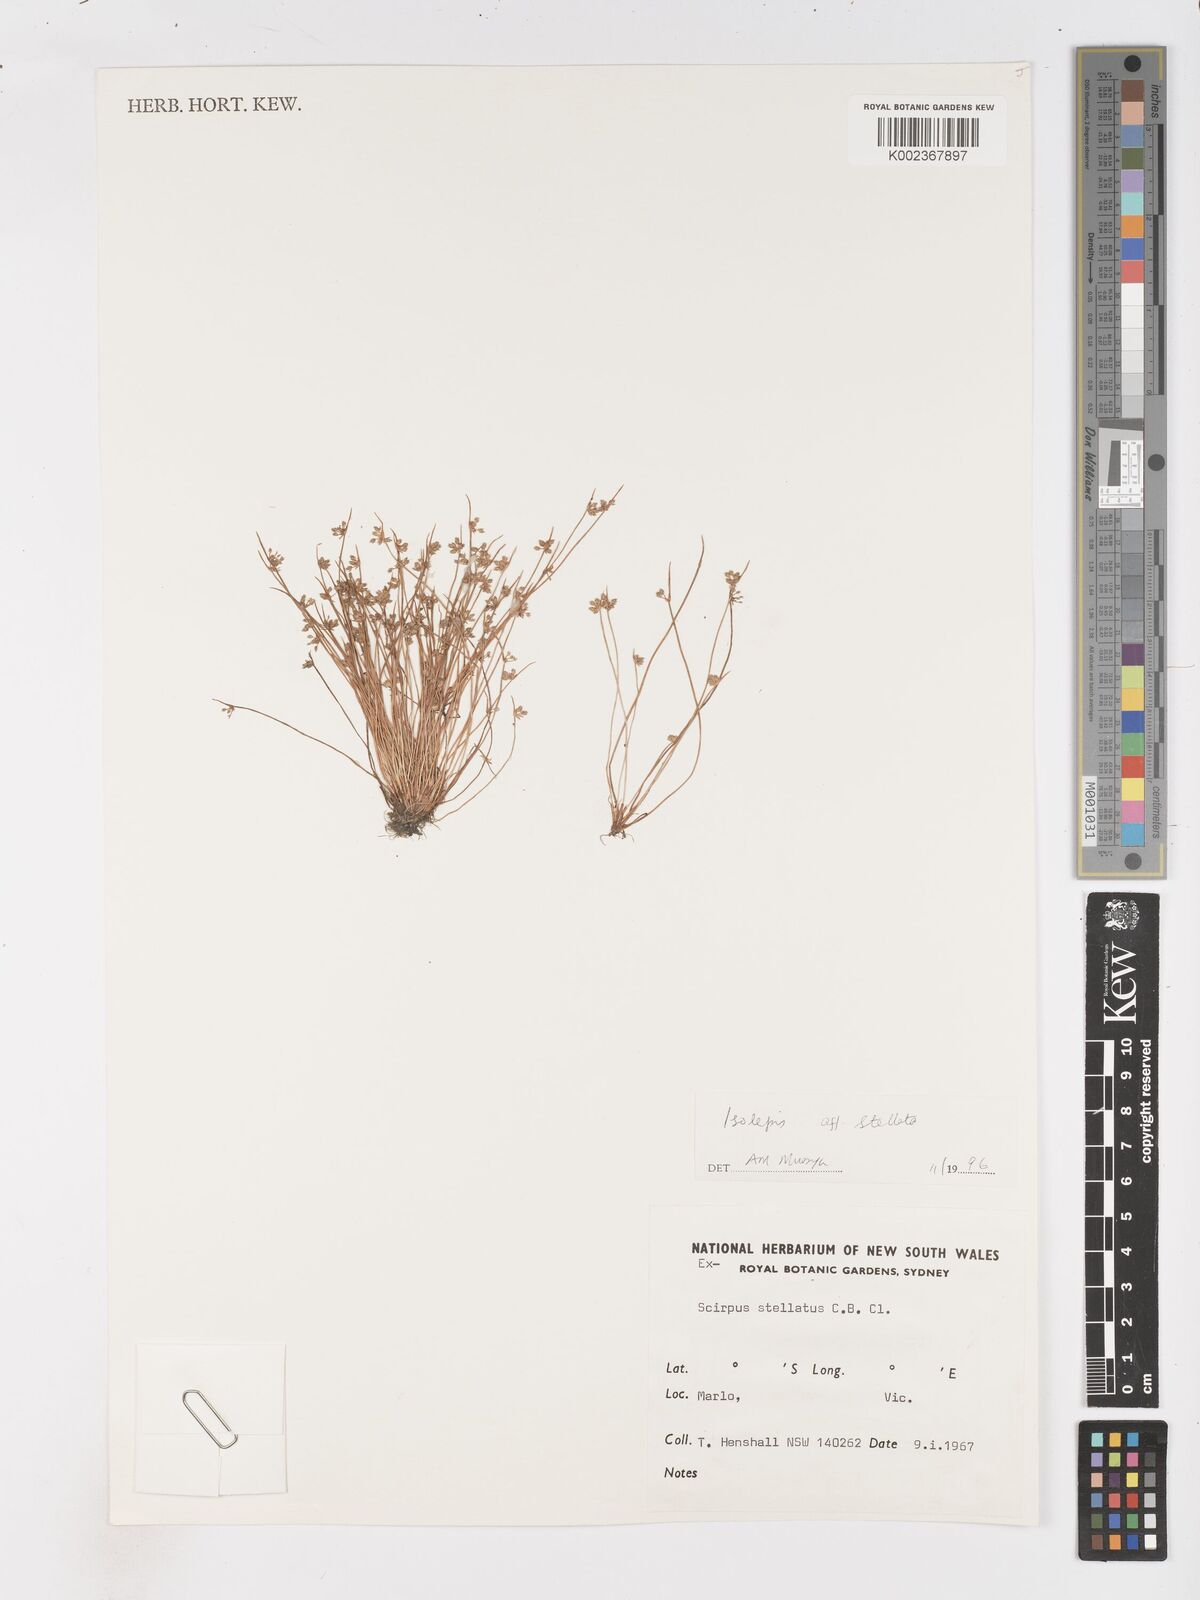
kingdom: Plantae
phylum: Tracheophyta
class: Liliopsida
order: Poales
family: Cyperaceae
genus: Isolepis
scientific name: Isolepis stellata
